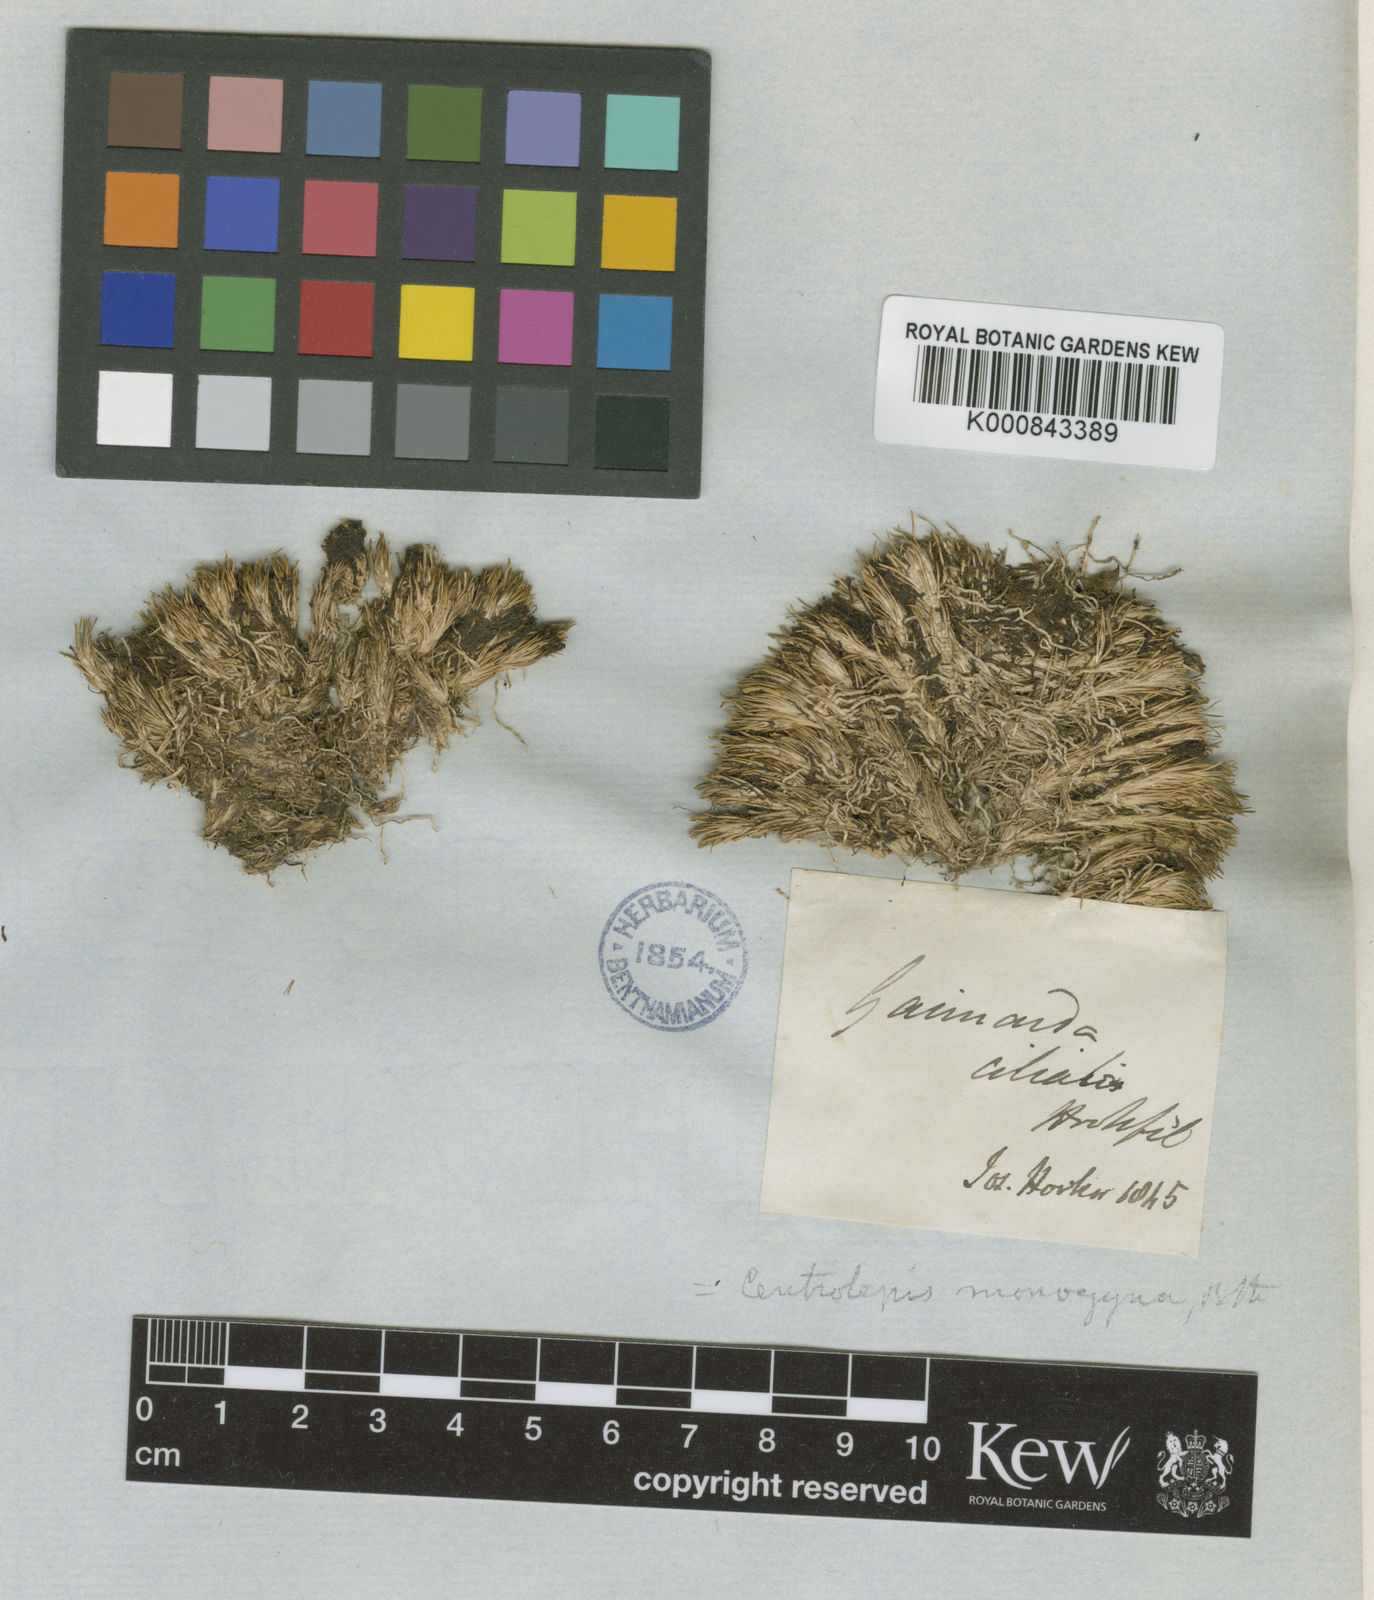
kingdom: Plantae
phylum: Tracheophyta
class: Liliopsida
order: Poales
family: Restionaceae
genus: Centrolepis
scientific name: Centrolepis ciliata
